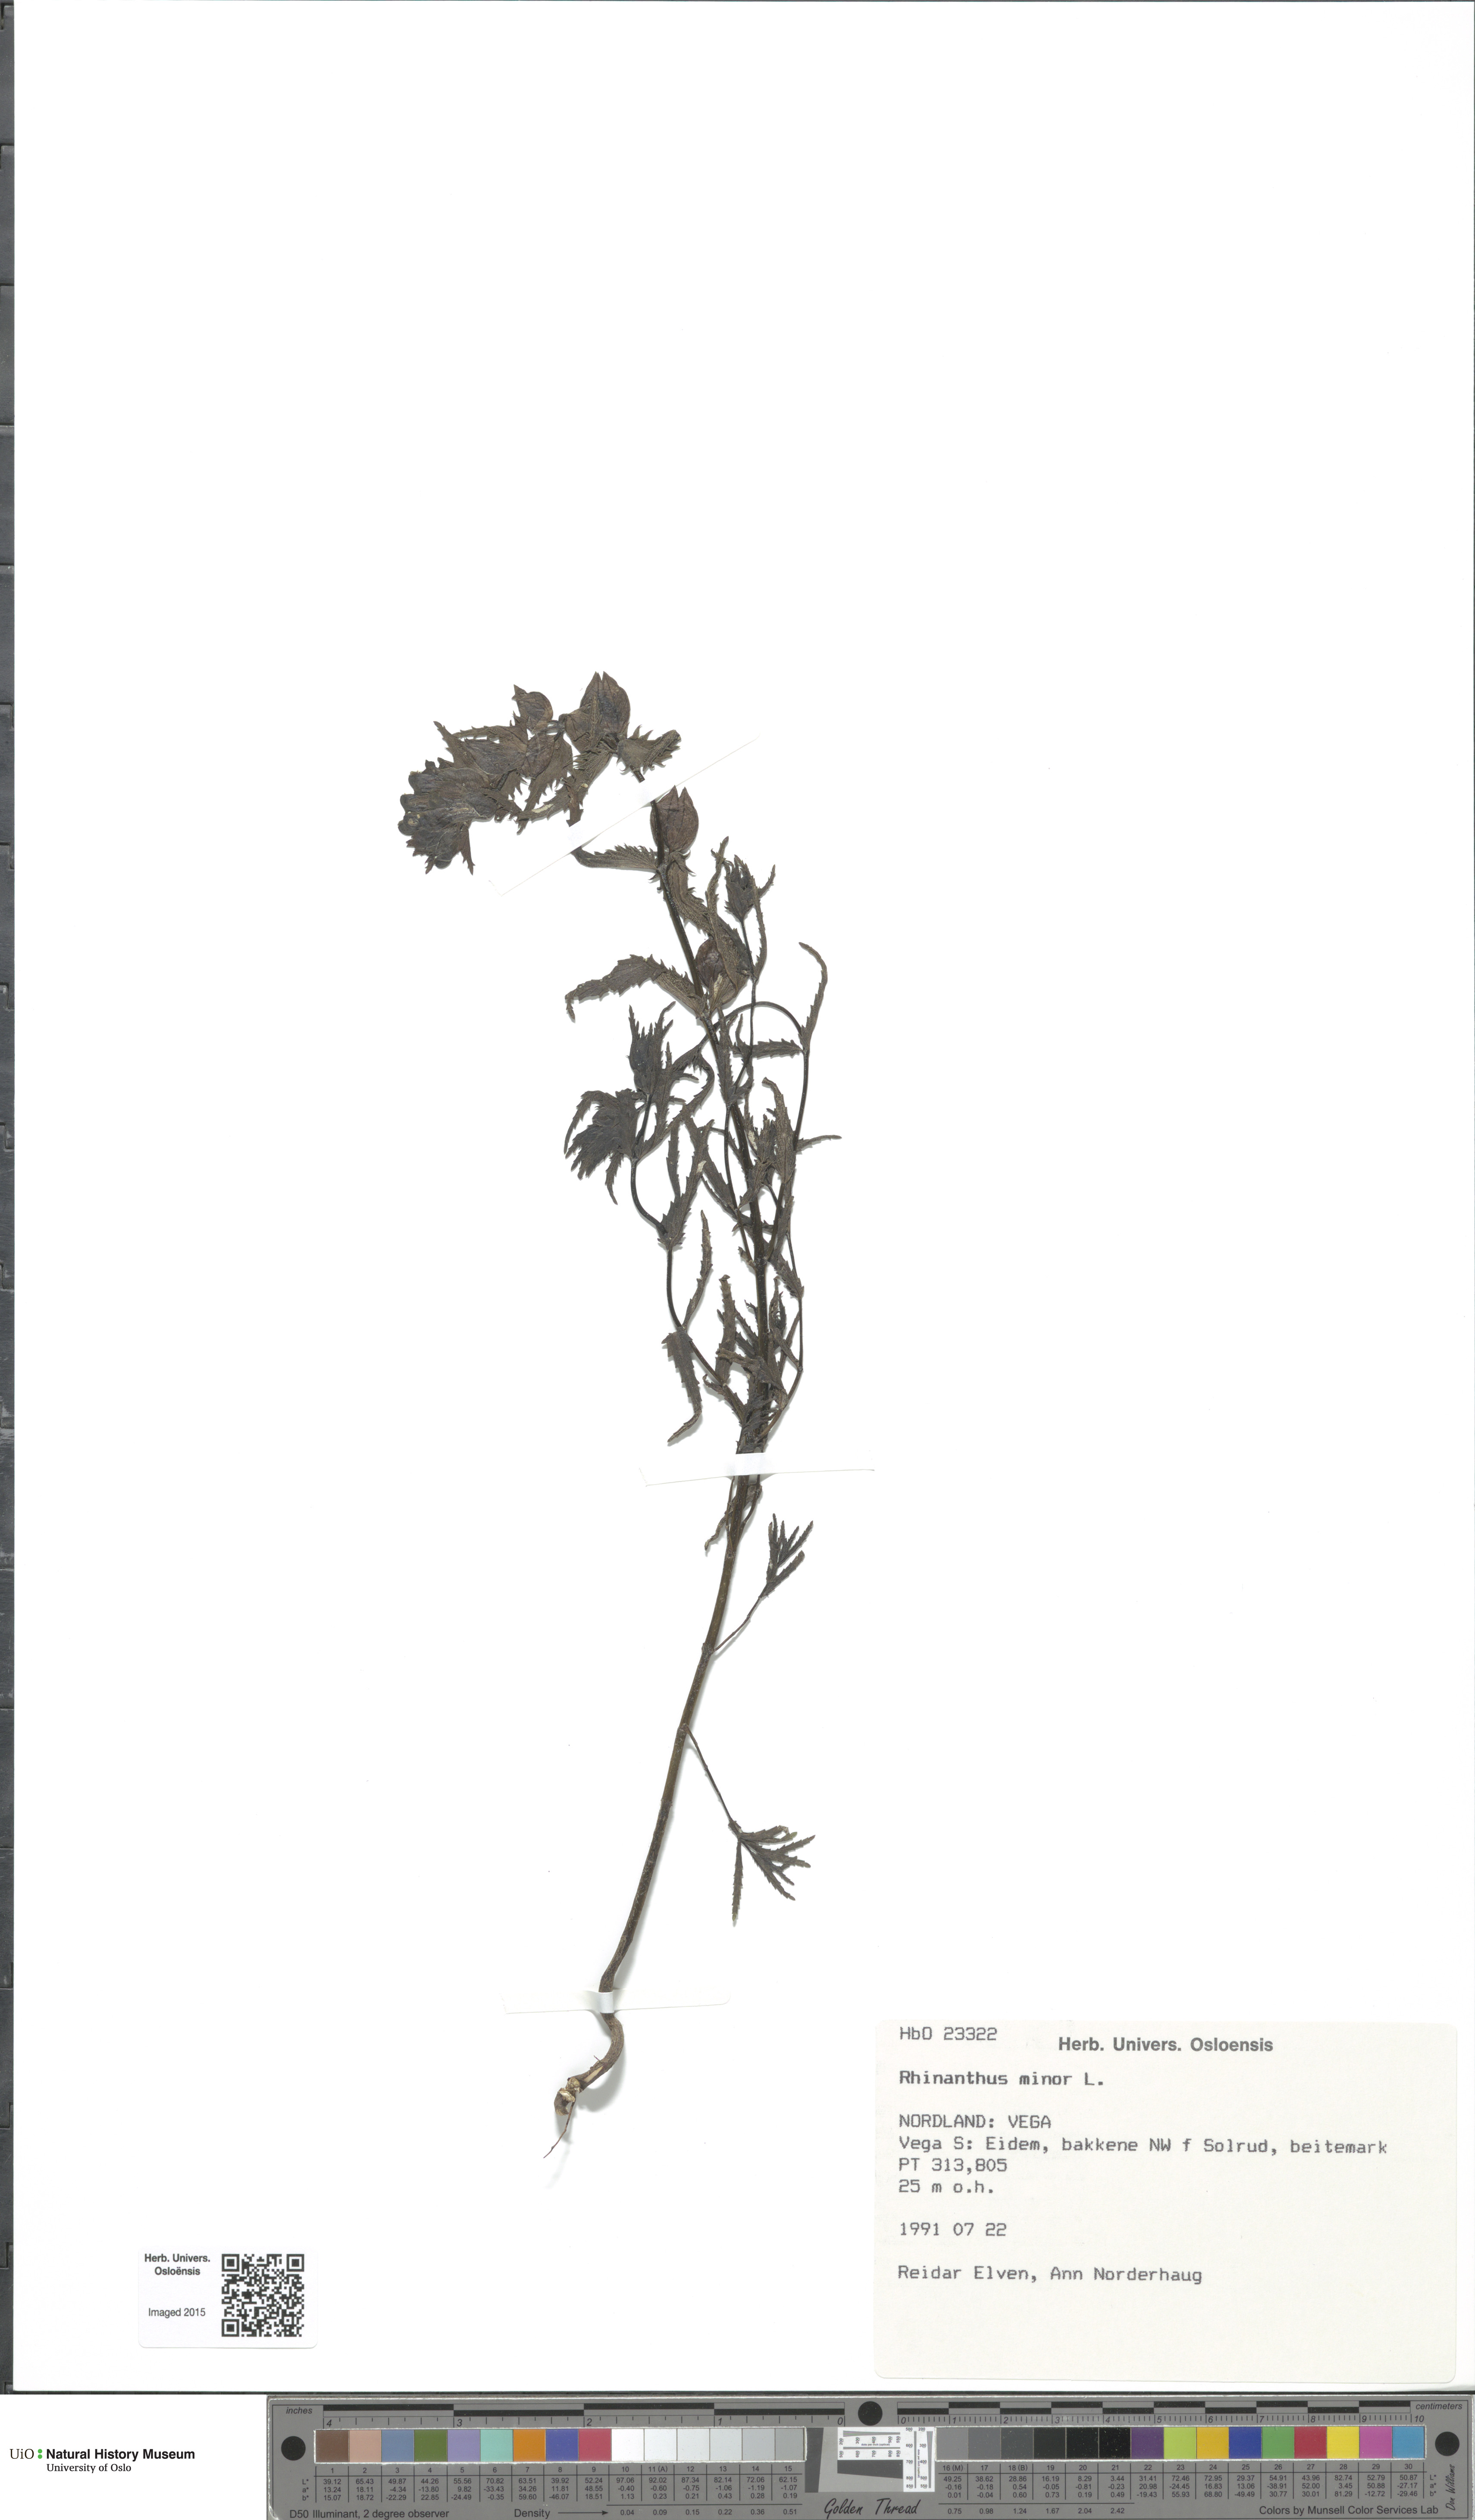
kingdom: Plantae
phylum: Tracheophyta
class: Magnoliopsida
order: Lamiales
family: Orobanchaceae
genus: Rhinanthus
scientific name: Rhinanthus minor
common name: Yellow-rattle
